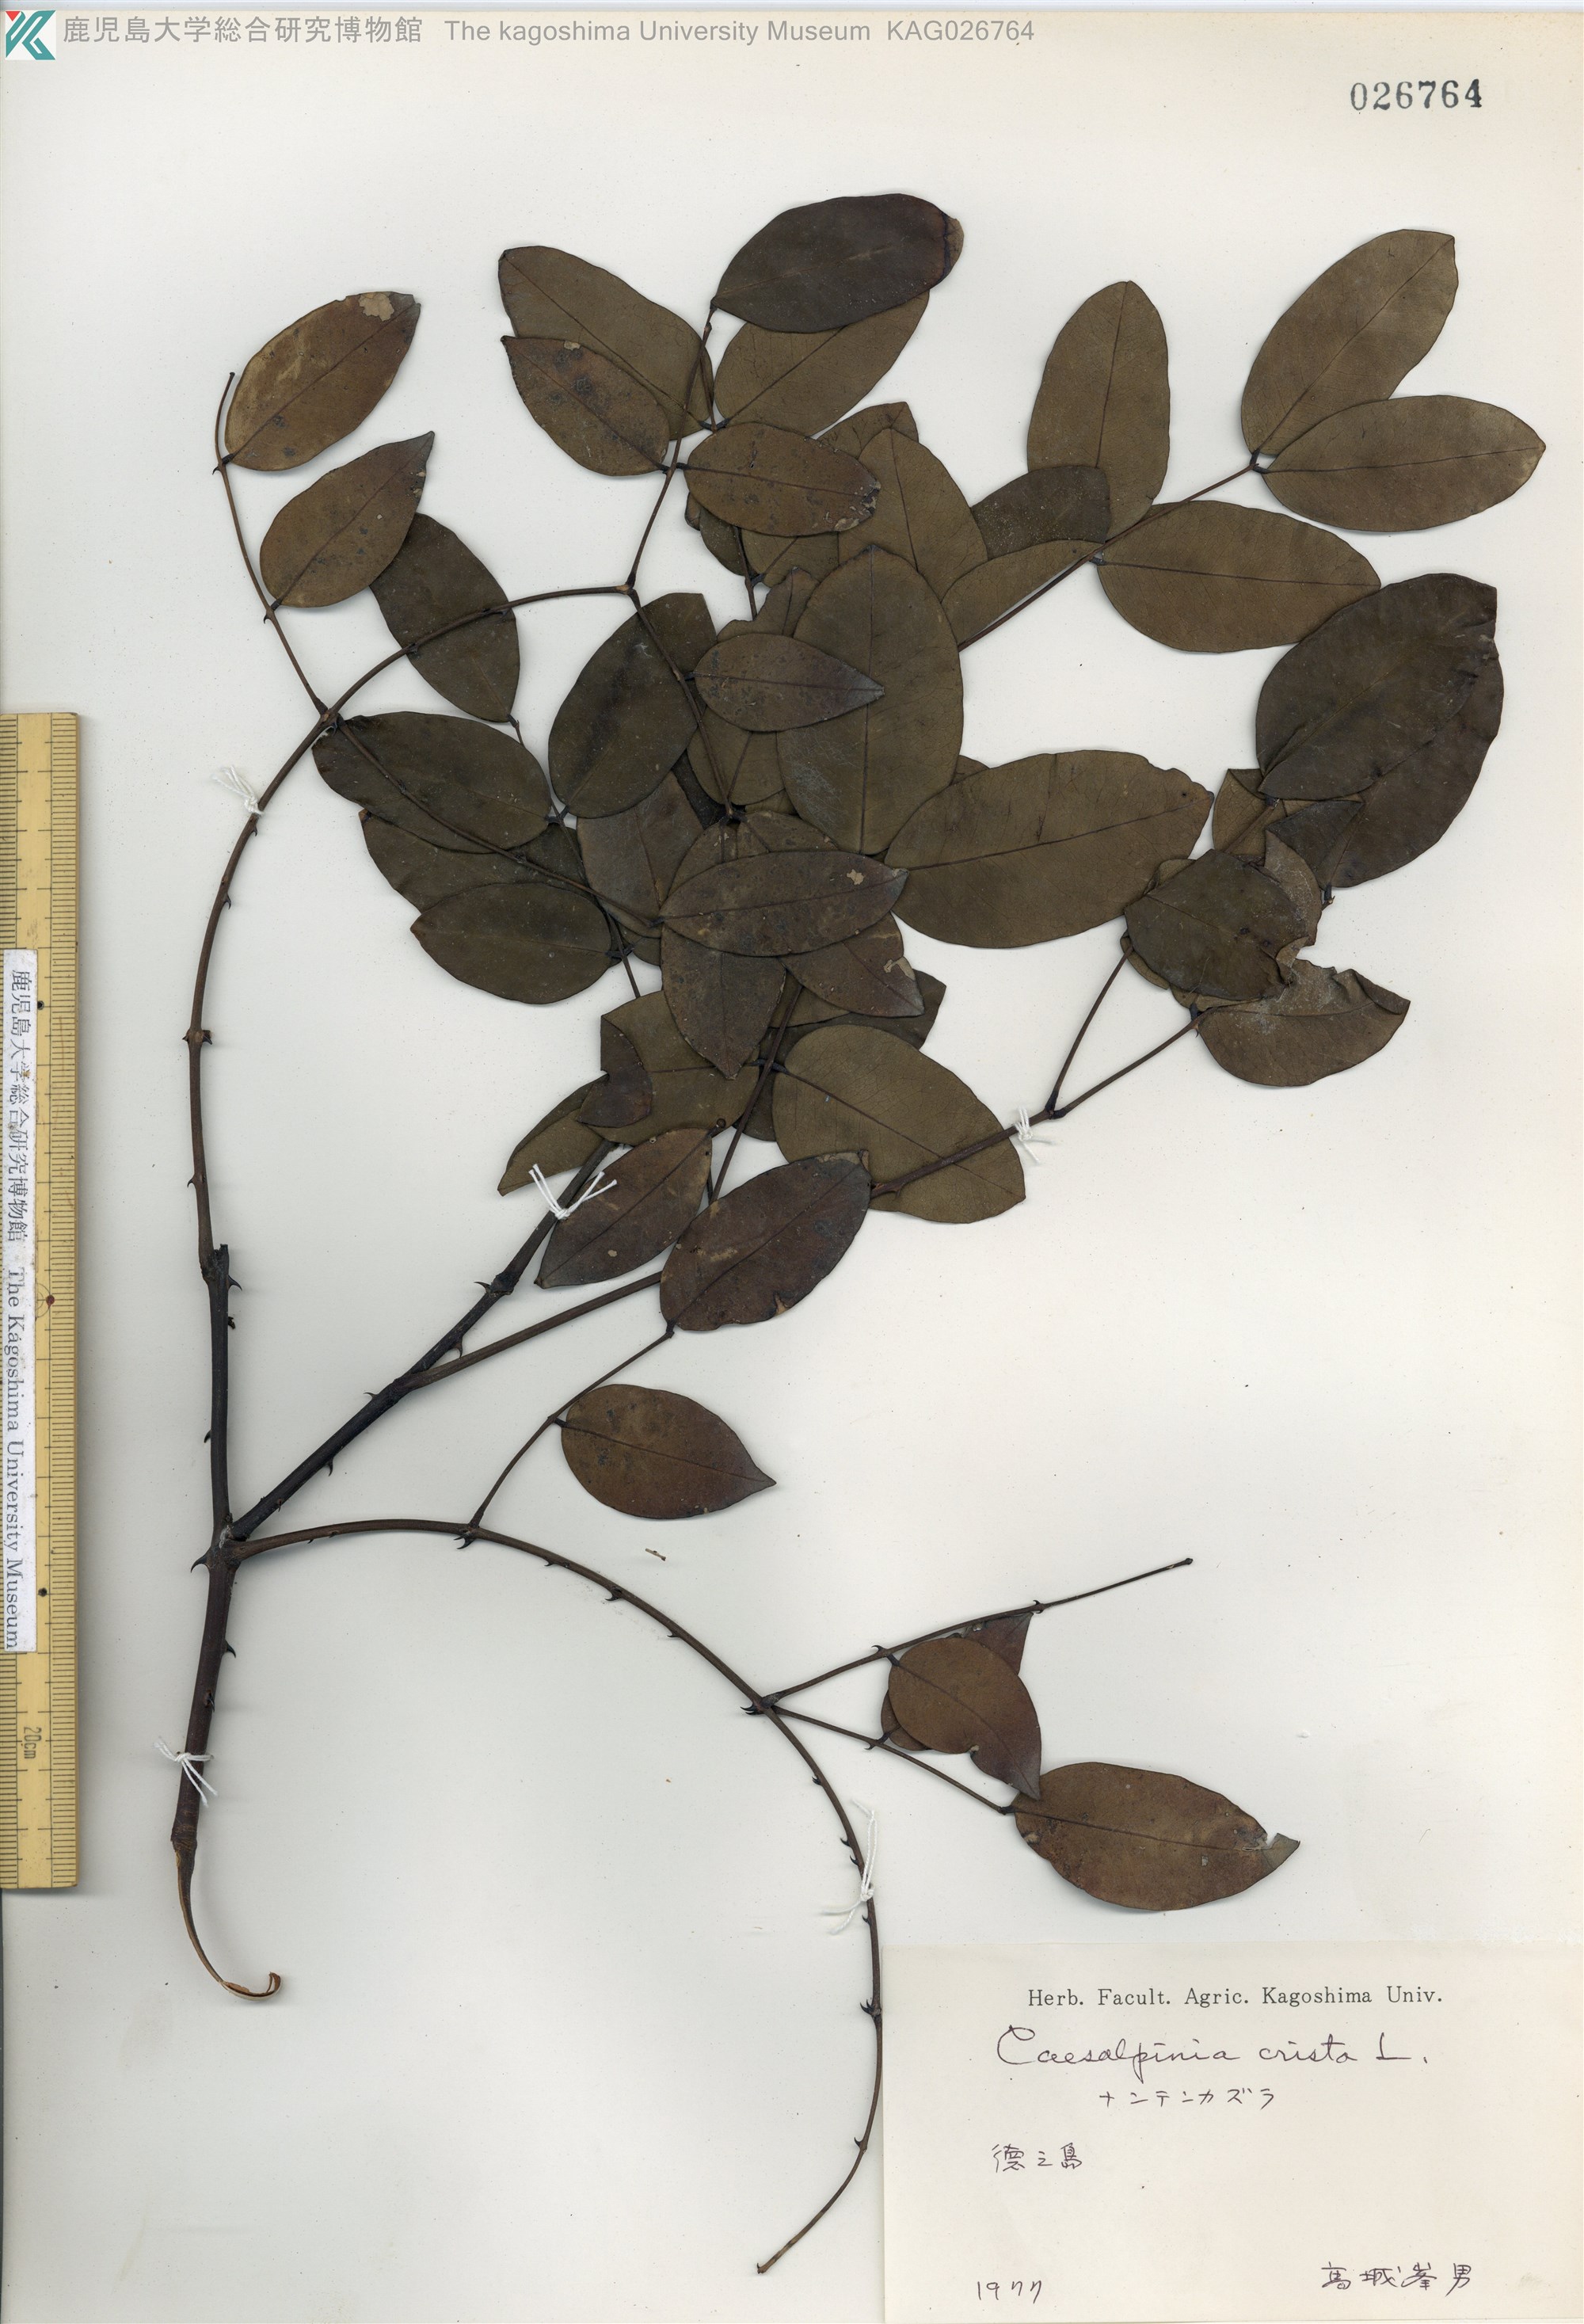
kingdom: Plantae
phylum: Tracheophyta
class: Magnoliopsida
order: Fabales
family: Fabaceae
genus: Caesalpinia
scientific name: Caesalpinia Ticanto crista
